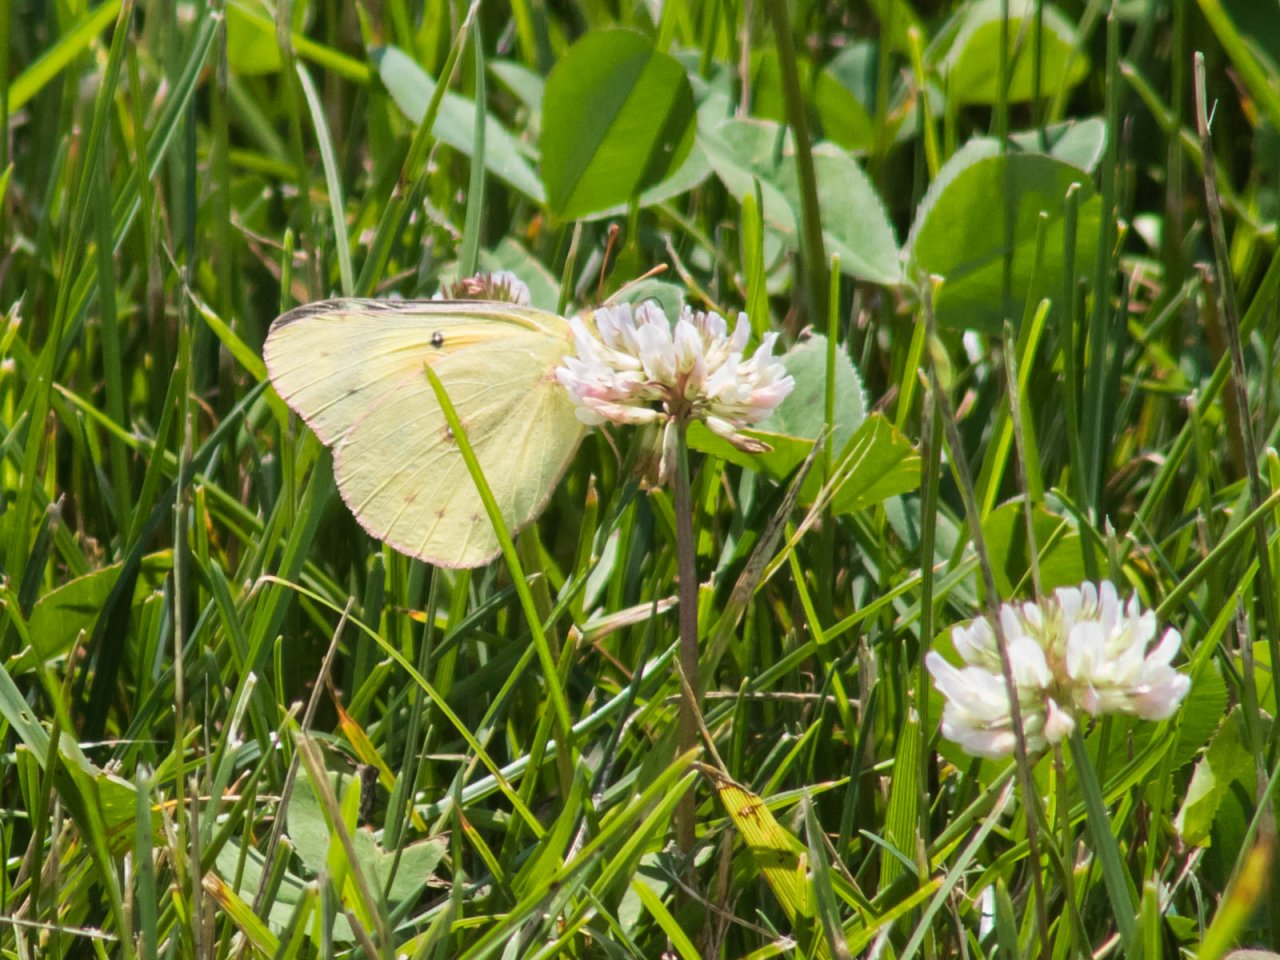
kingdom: Animalia
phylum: Arthropoda
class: Insecta
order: Lepidoptera
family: Pieridae
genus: Colias
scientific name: Colias eurytheme
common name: Orange Sulphur
